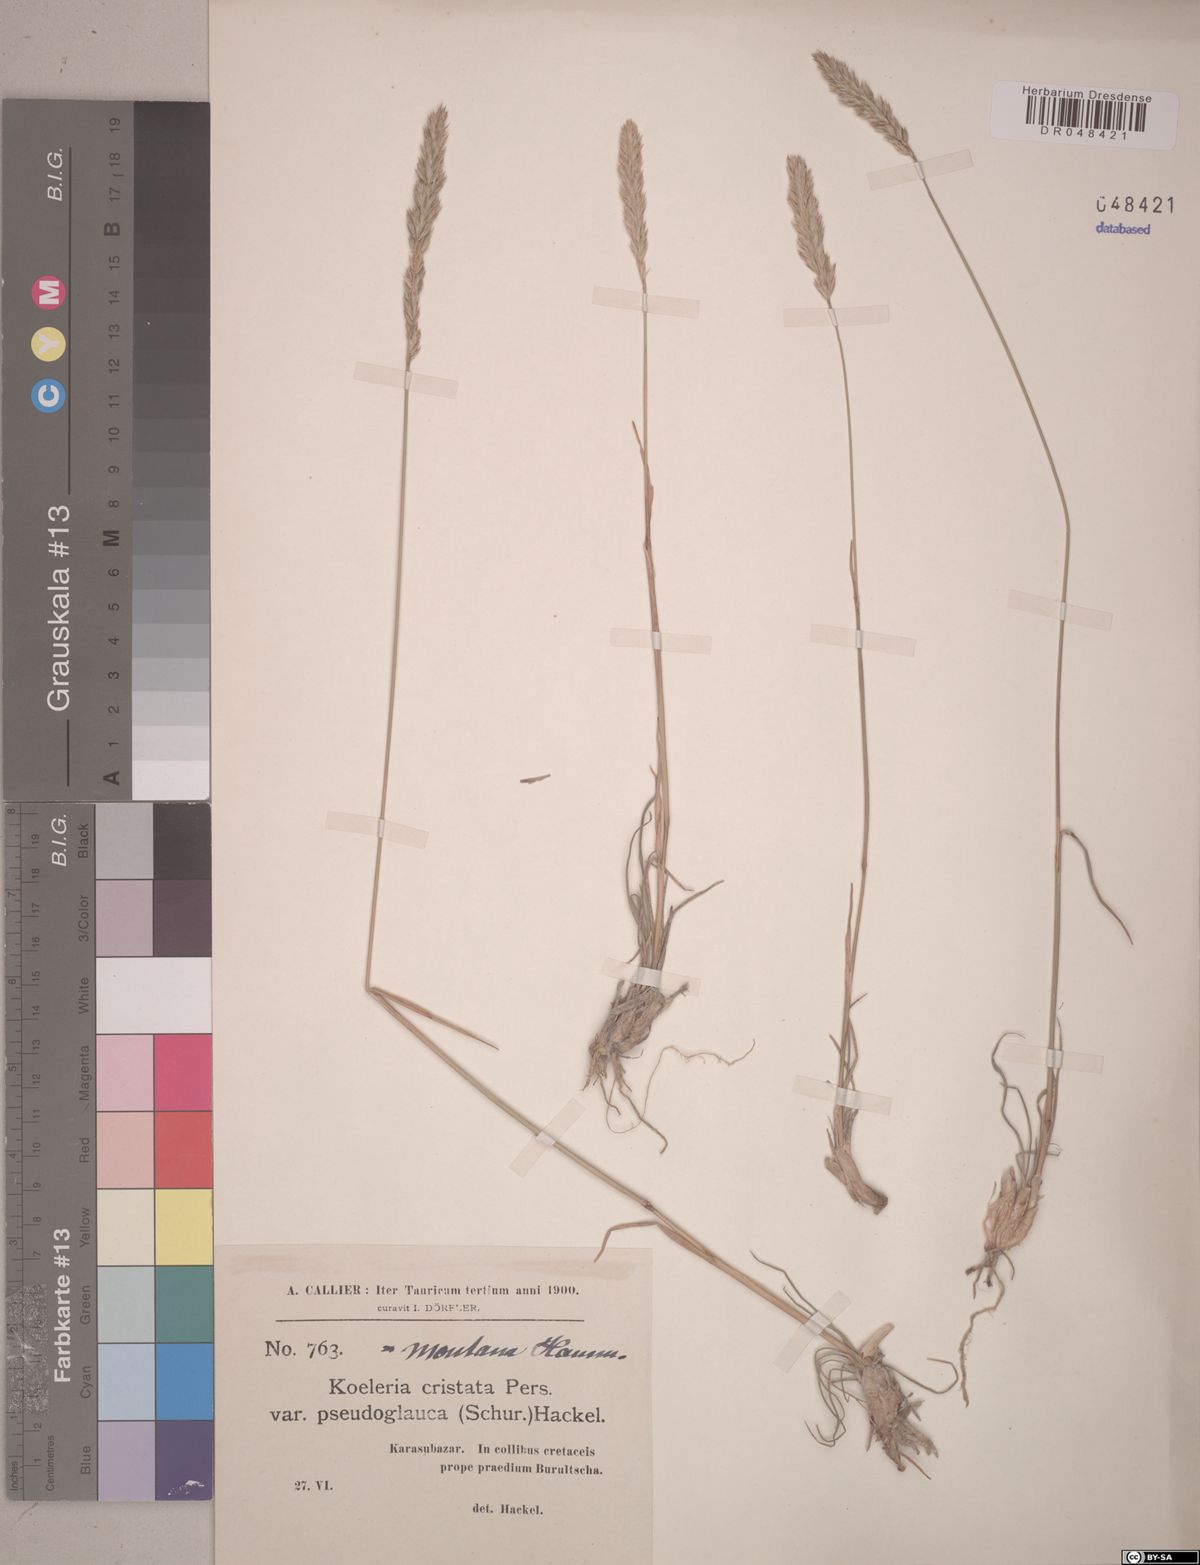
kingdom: Plantae
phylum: Tracheophyta
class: Liliopsida
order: Poales
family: Poaceae
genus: Koeleria
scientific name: Koeleria cristata
